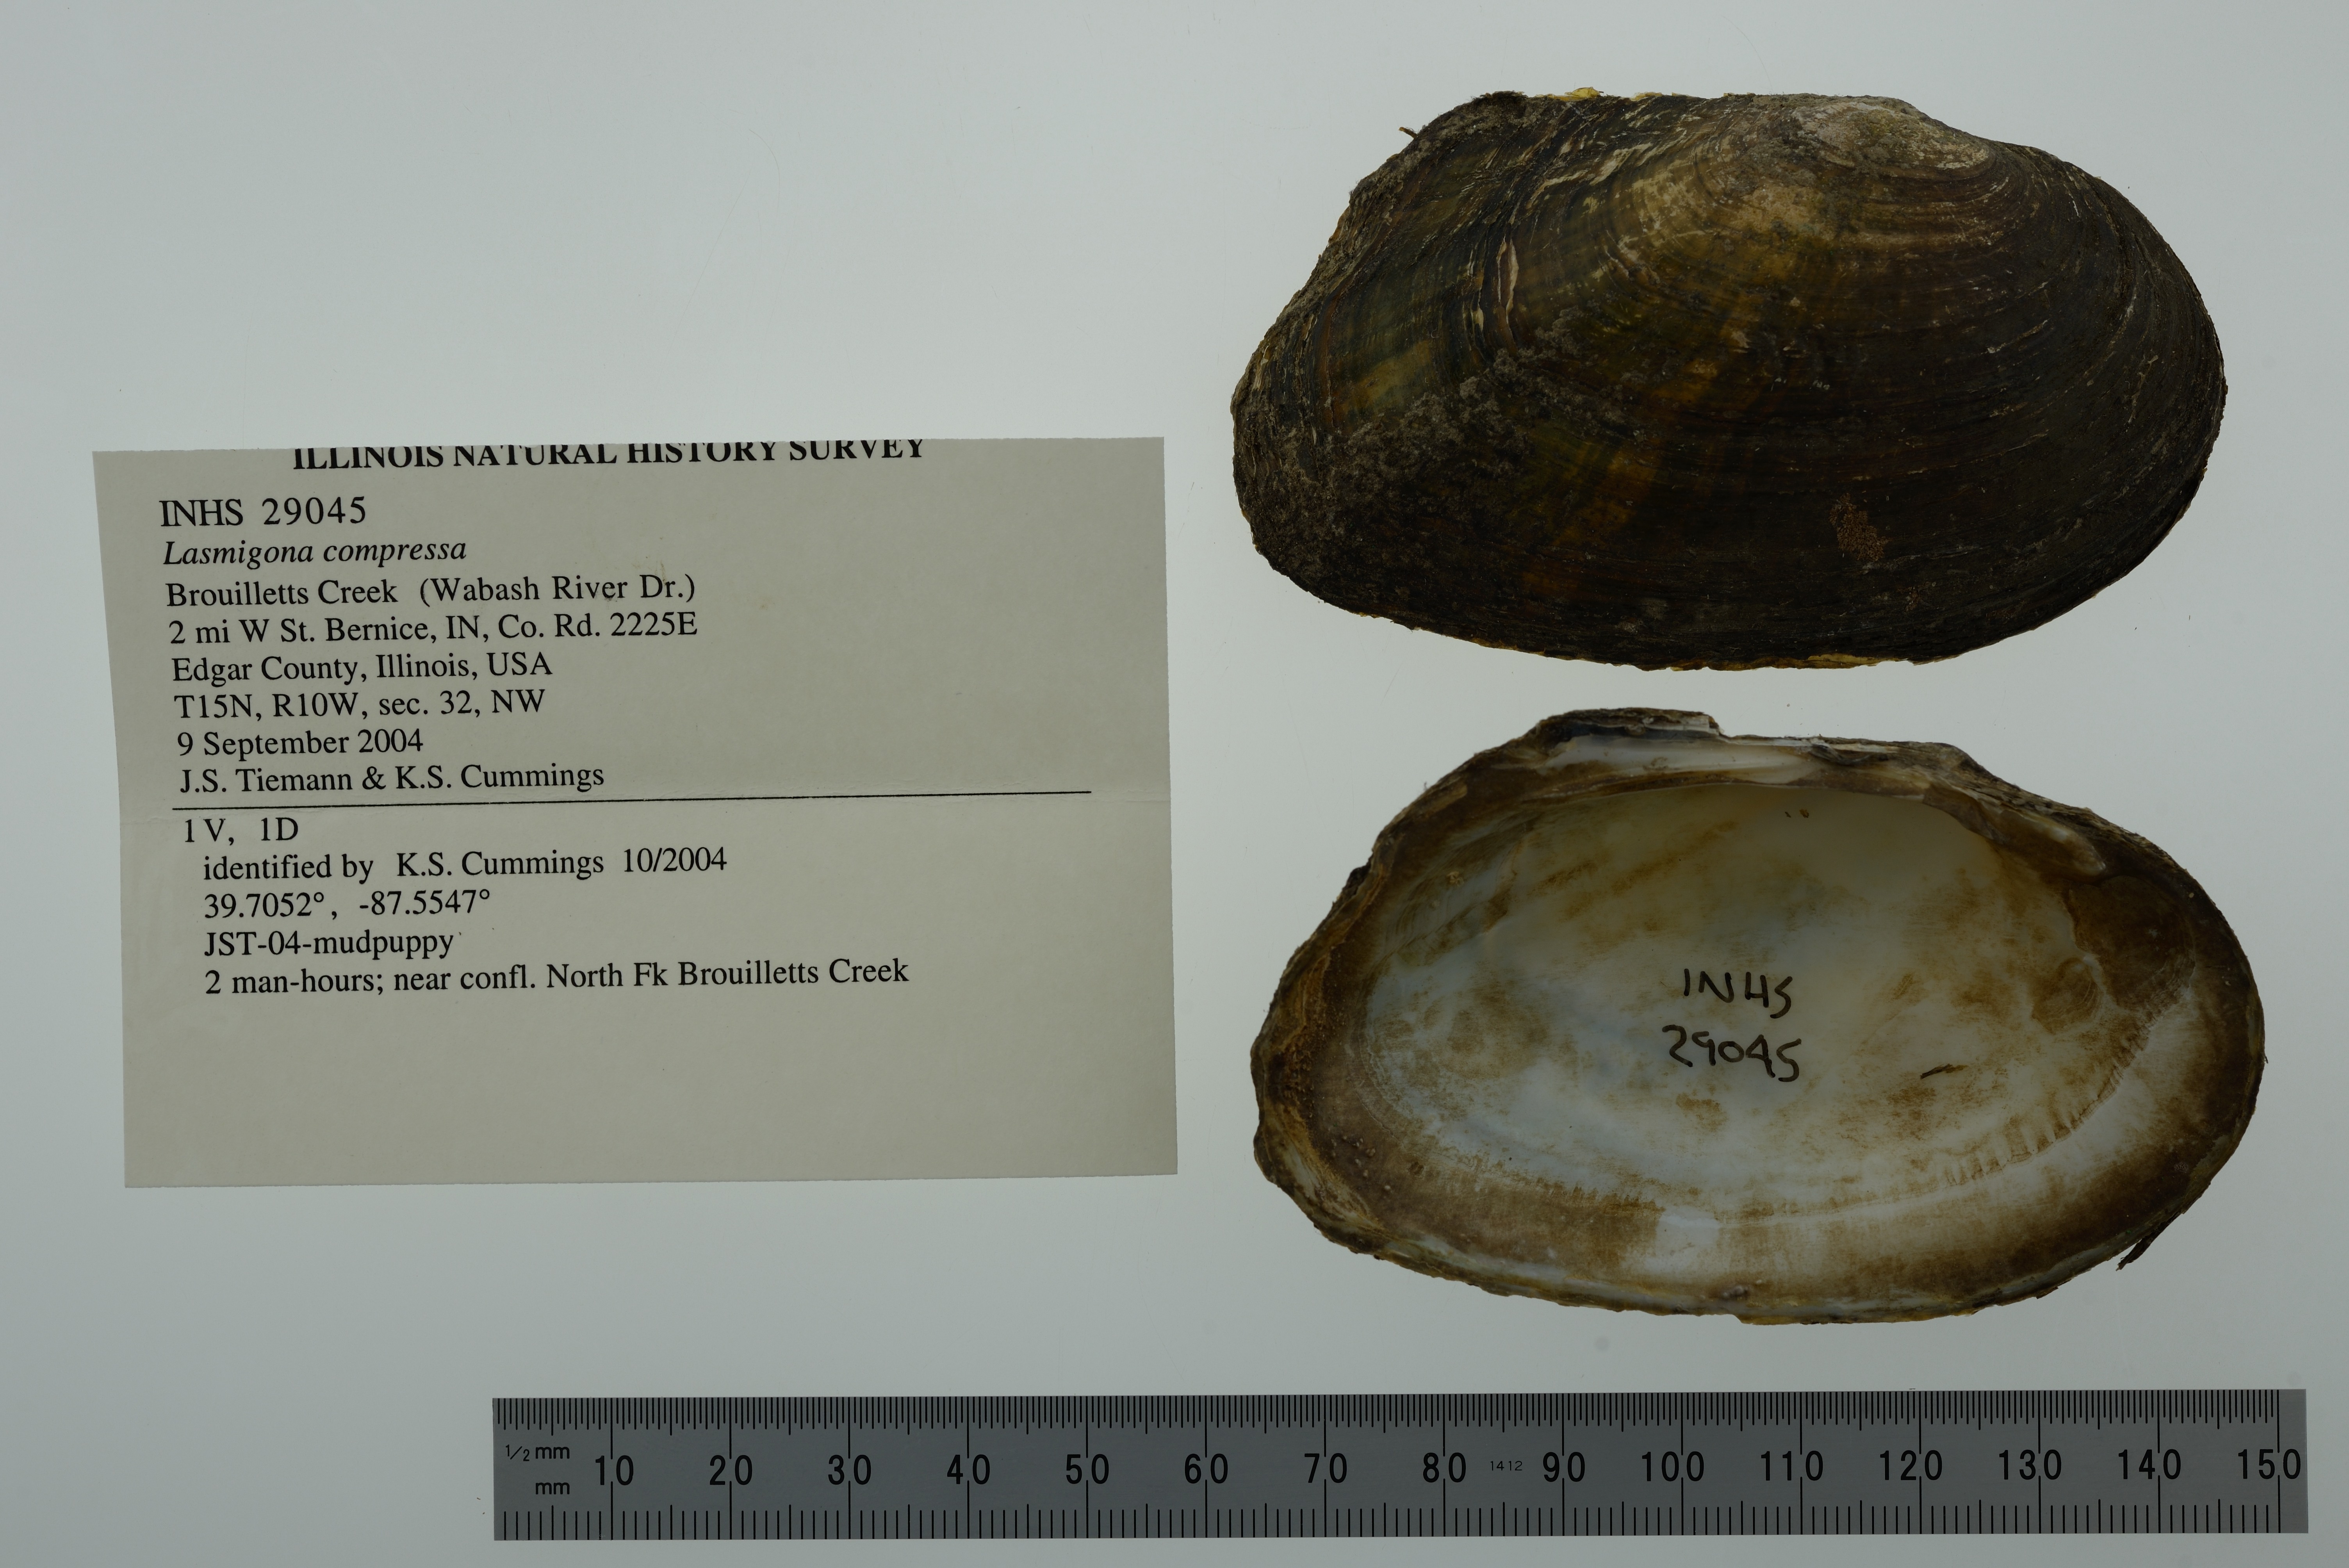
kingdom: Animalia
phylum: Mollusca
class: Bivalvia
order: Unionida
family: Unionidae
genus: Lasmigona
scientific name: Lasmigona compressa
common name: Creek heelsplitter
